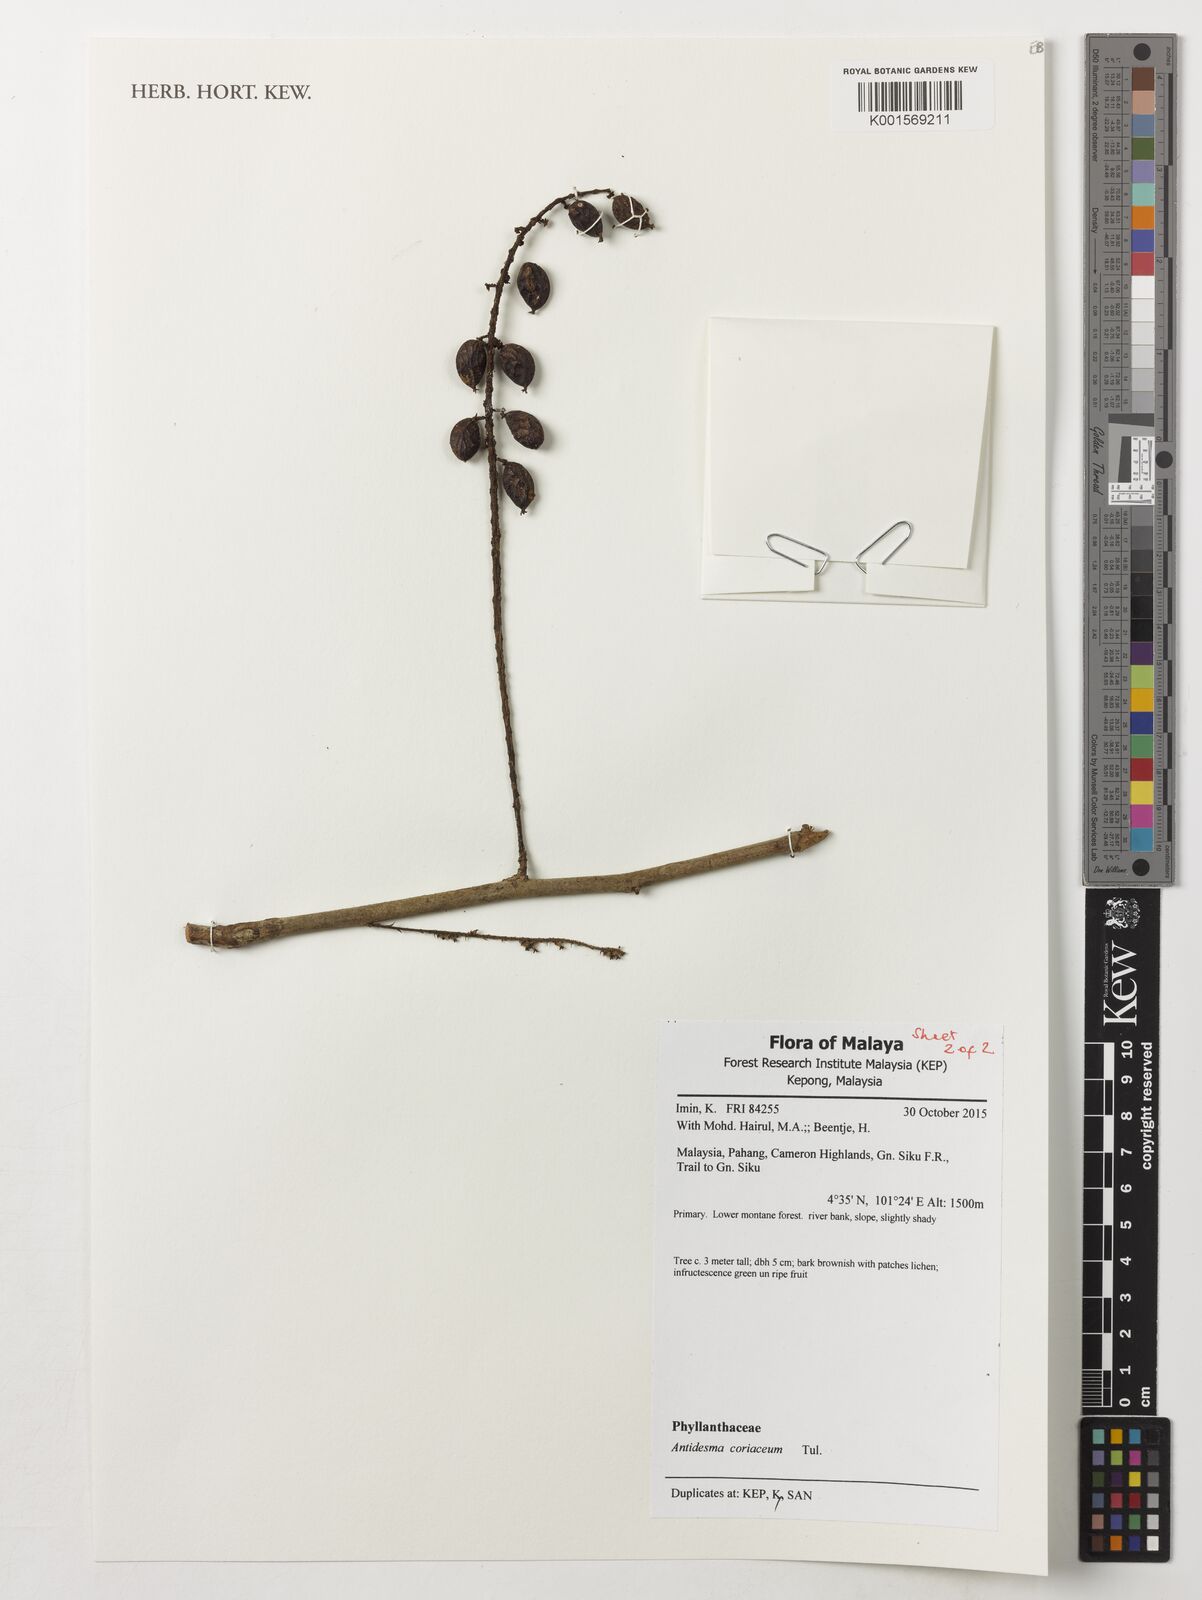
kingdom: Plantae
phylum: Tracheophyta
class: Magnoliopsida
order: Malpighiales
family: Phyllanthaceae
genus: Antidesma
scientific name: Antidesma coriaceum
